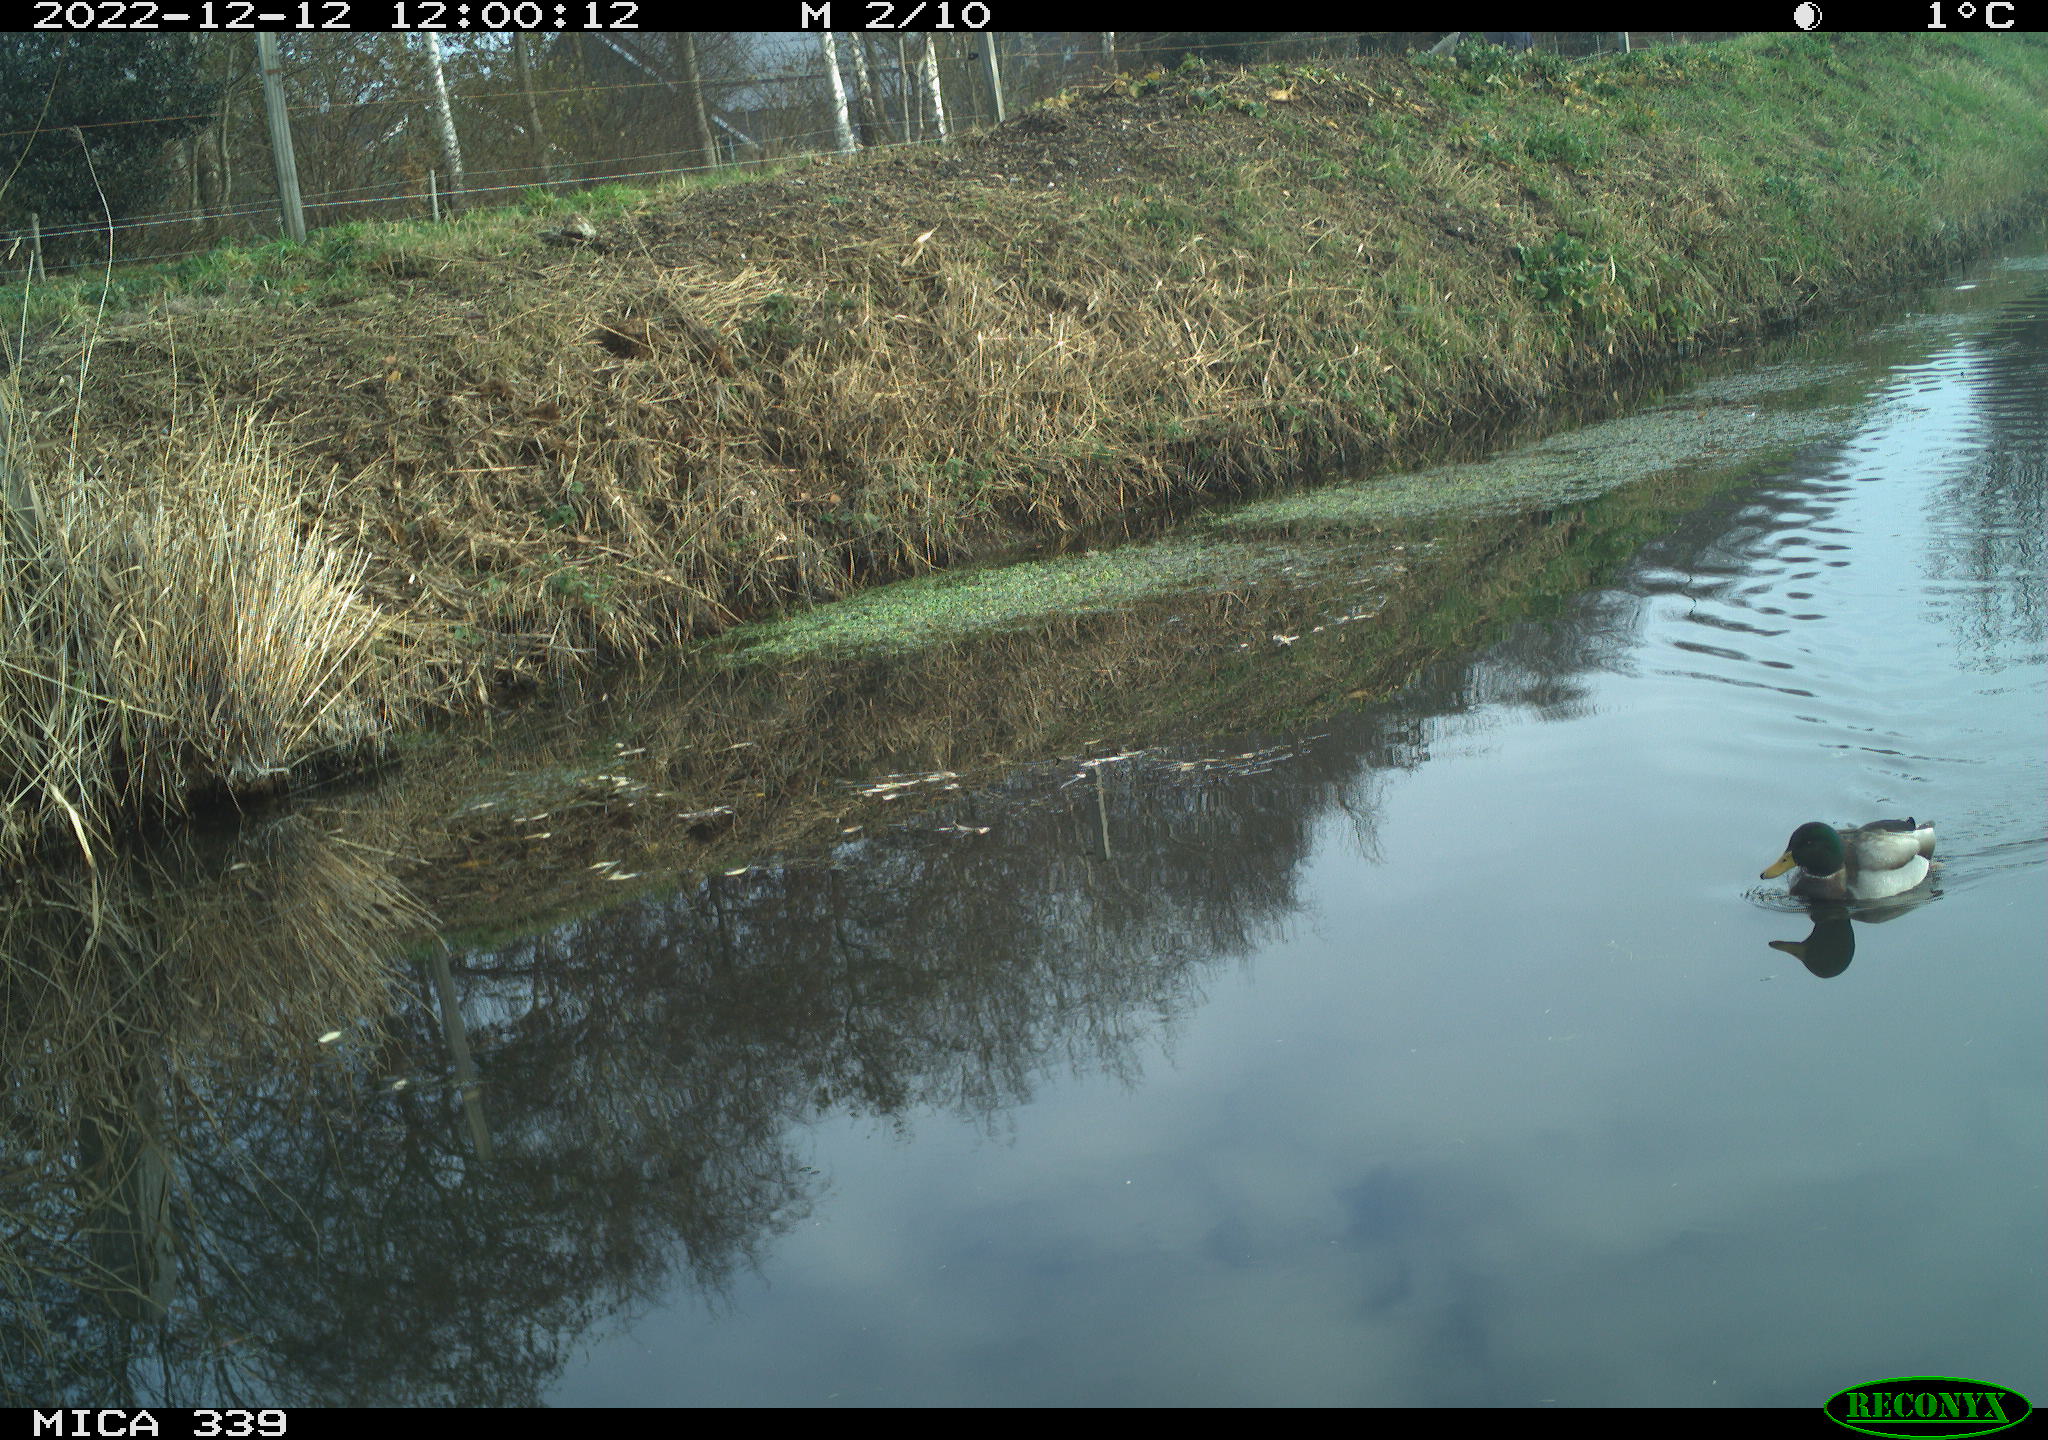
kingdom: Animalia
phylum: Chordata
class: Aves
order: Gruiformes
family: Rallidae
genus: Gallinula
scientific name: Gallinula chloropus
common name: Common moorhen
